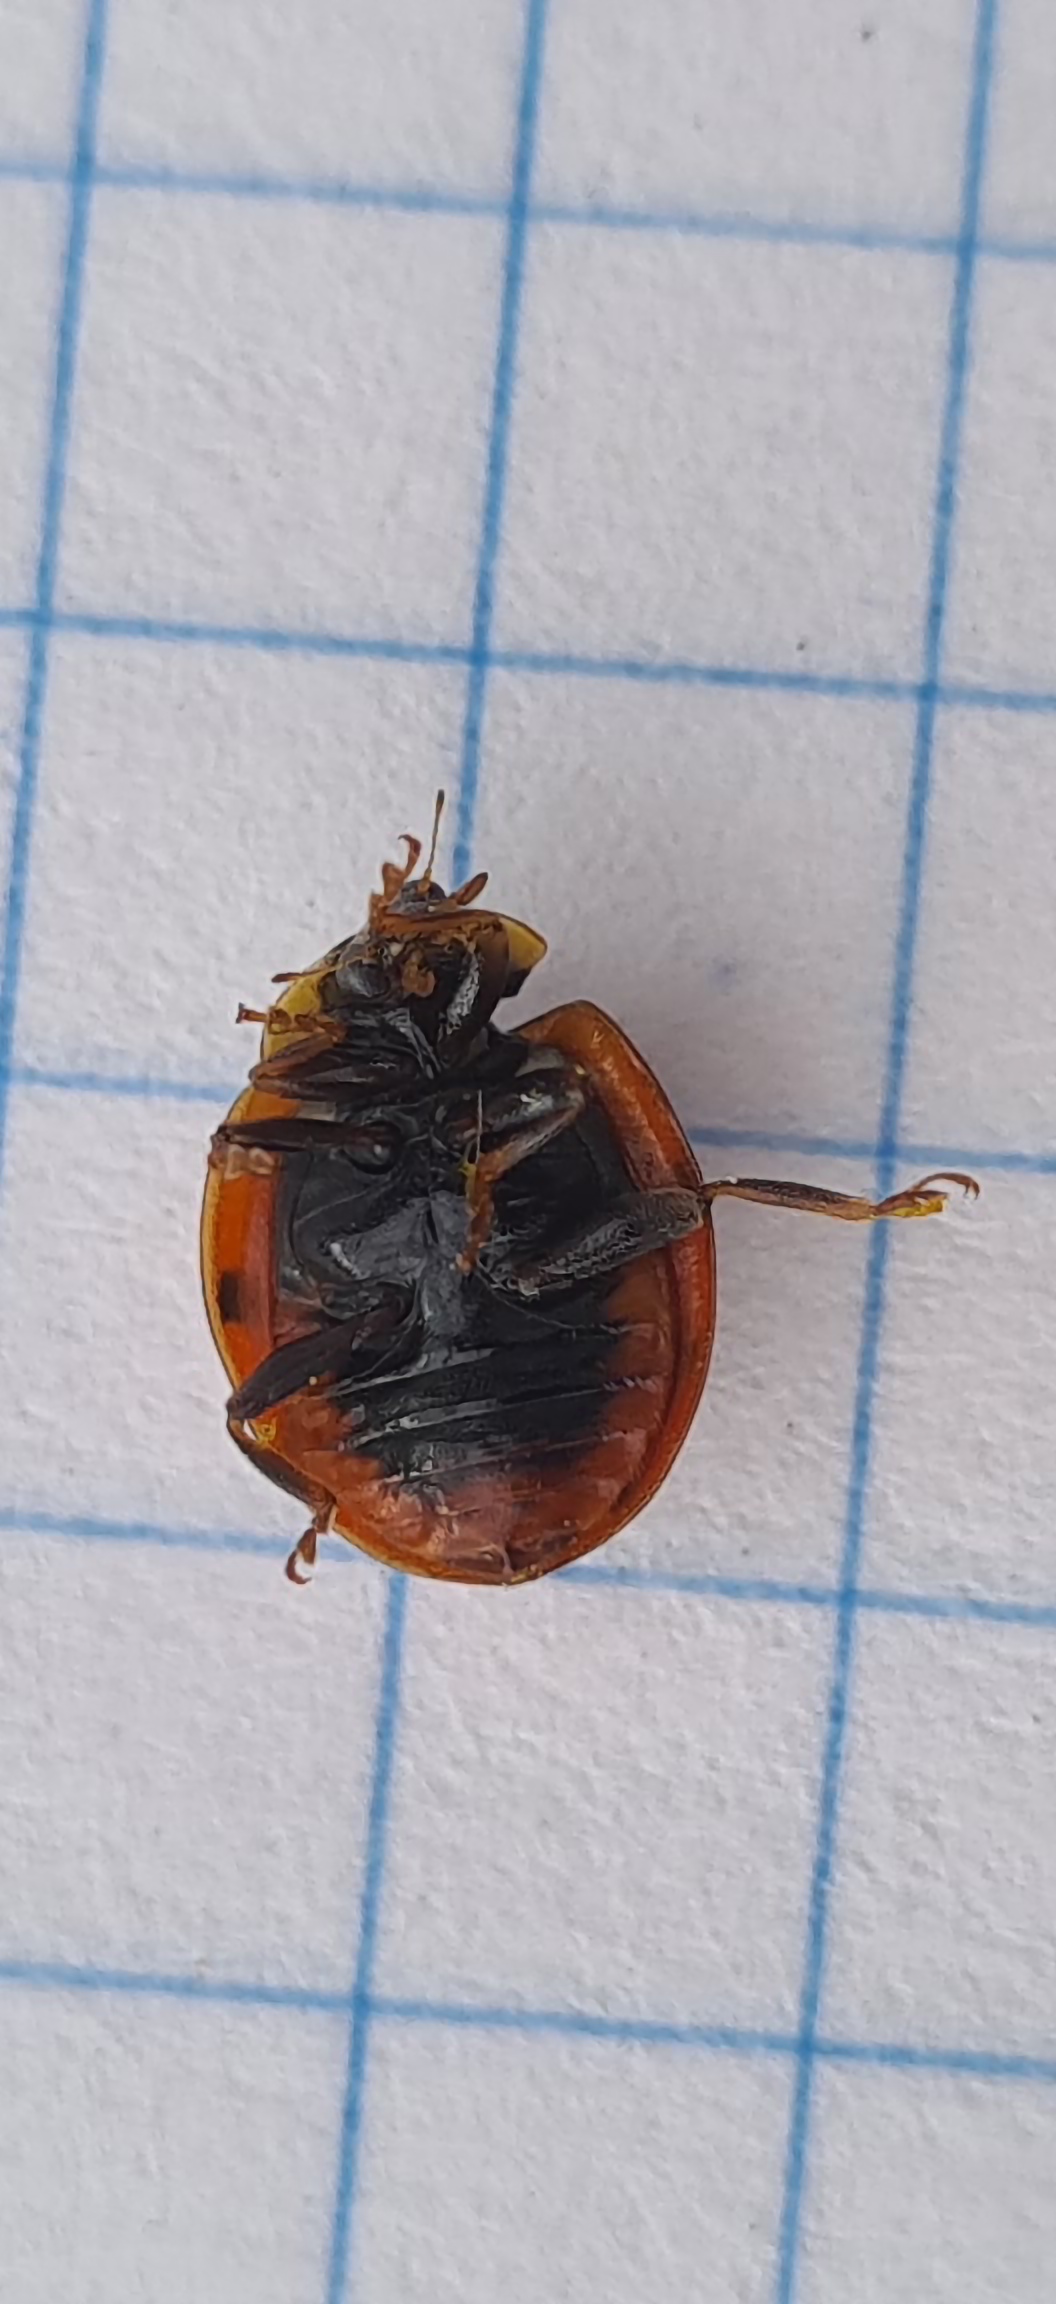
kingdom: Animalia
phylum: Arthropoda
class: Insecta
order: Coleoptera
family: Coccinellidae
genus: Harmonia
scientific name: Harmonia axyridis
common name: Harlekinmariehøne
